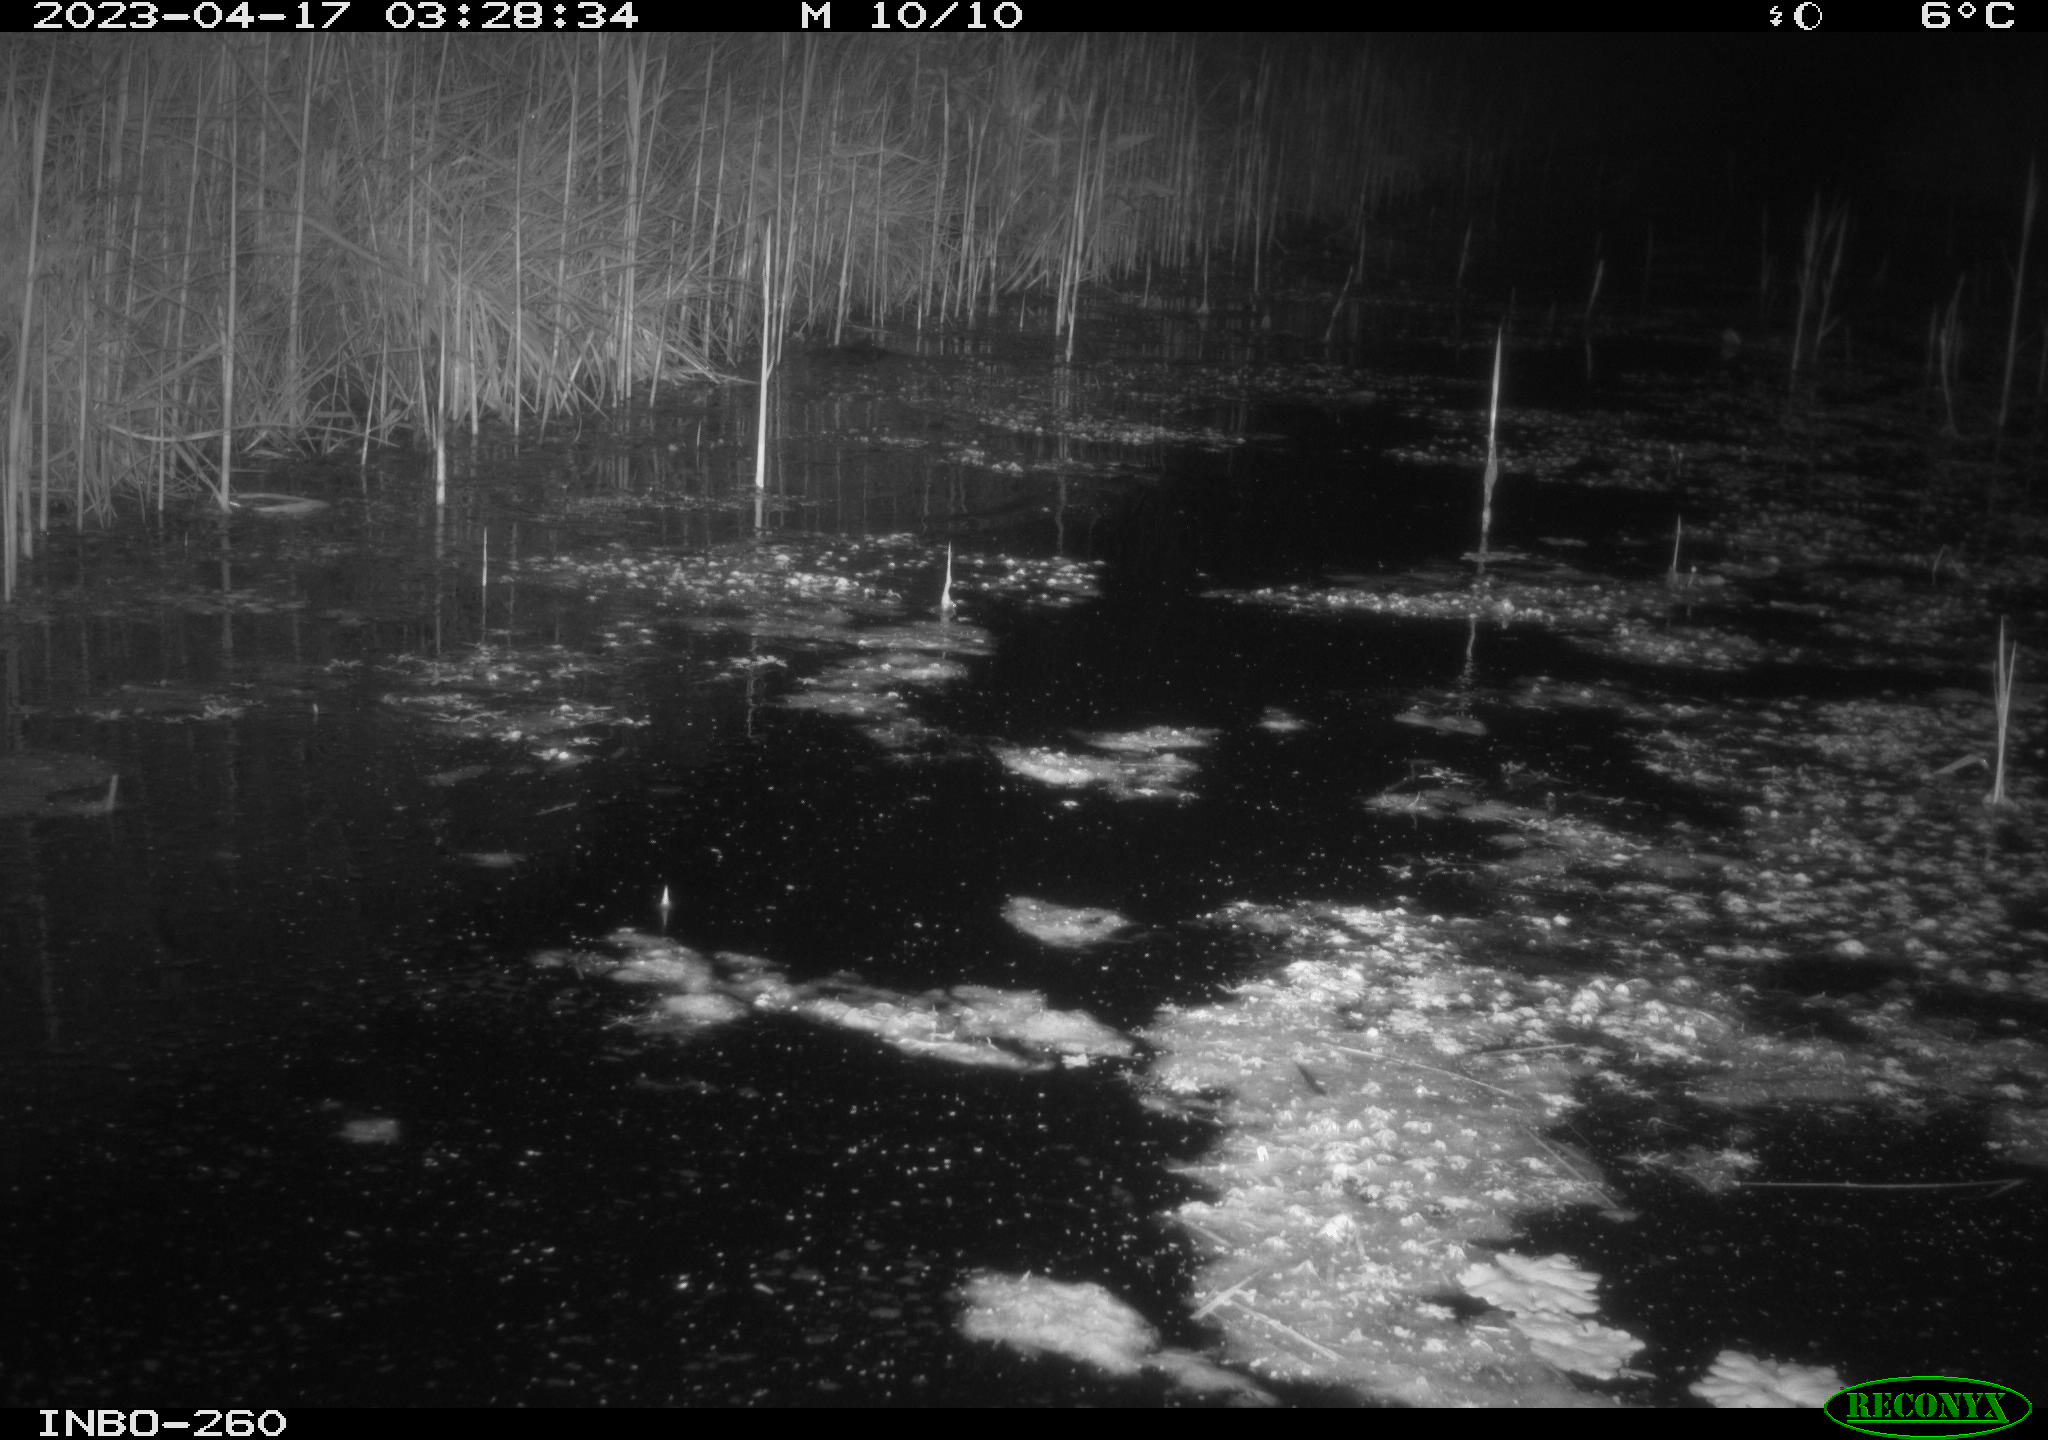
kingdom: Animalia
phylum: Chordata
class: Aves
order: Gruiformes
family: Rallidae
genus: Gallinula
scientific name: Gallinula chloropus
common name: Common moorhen
